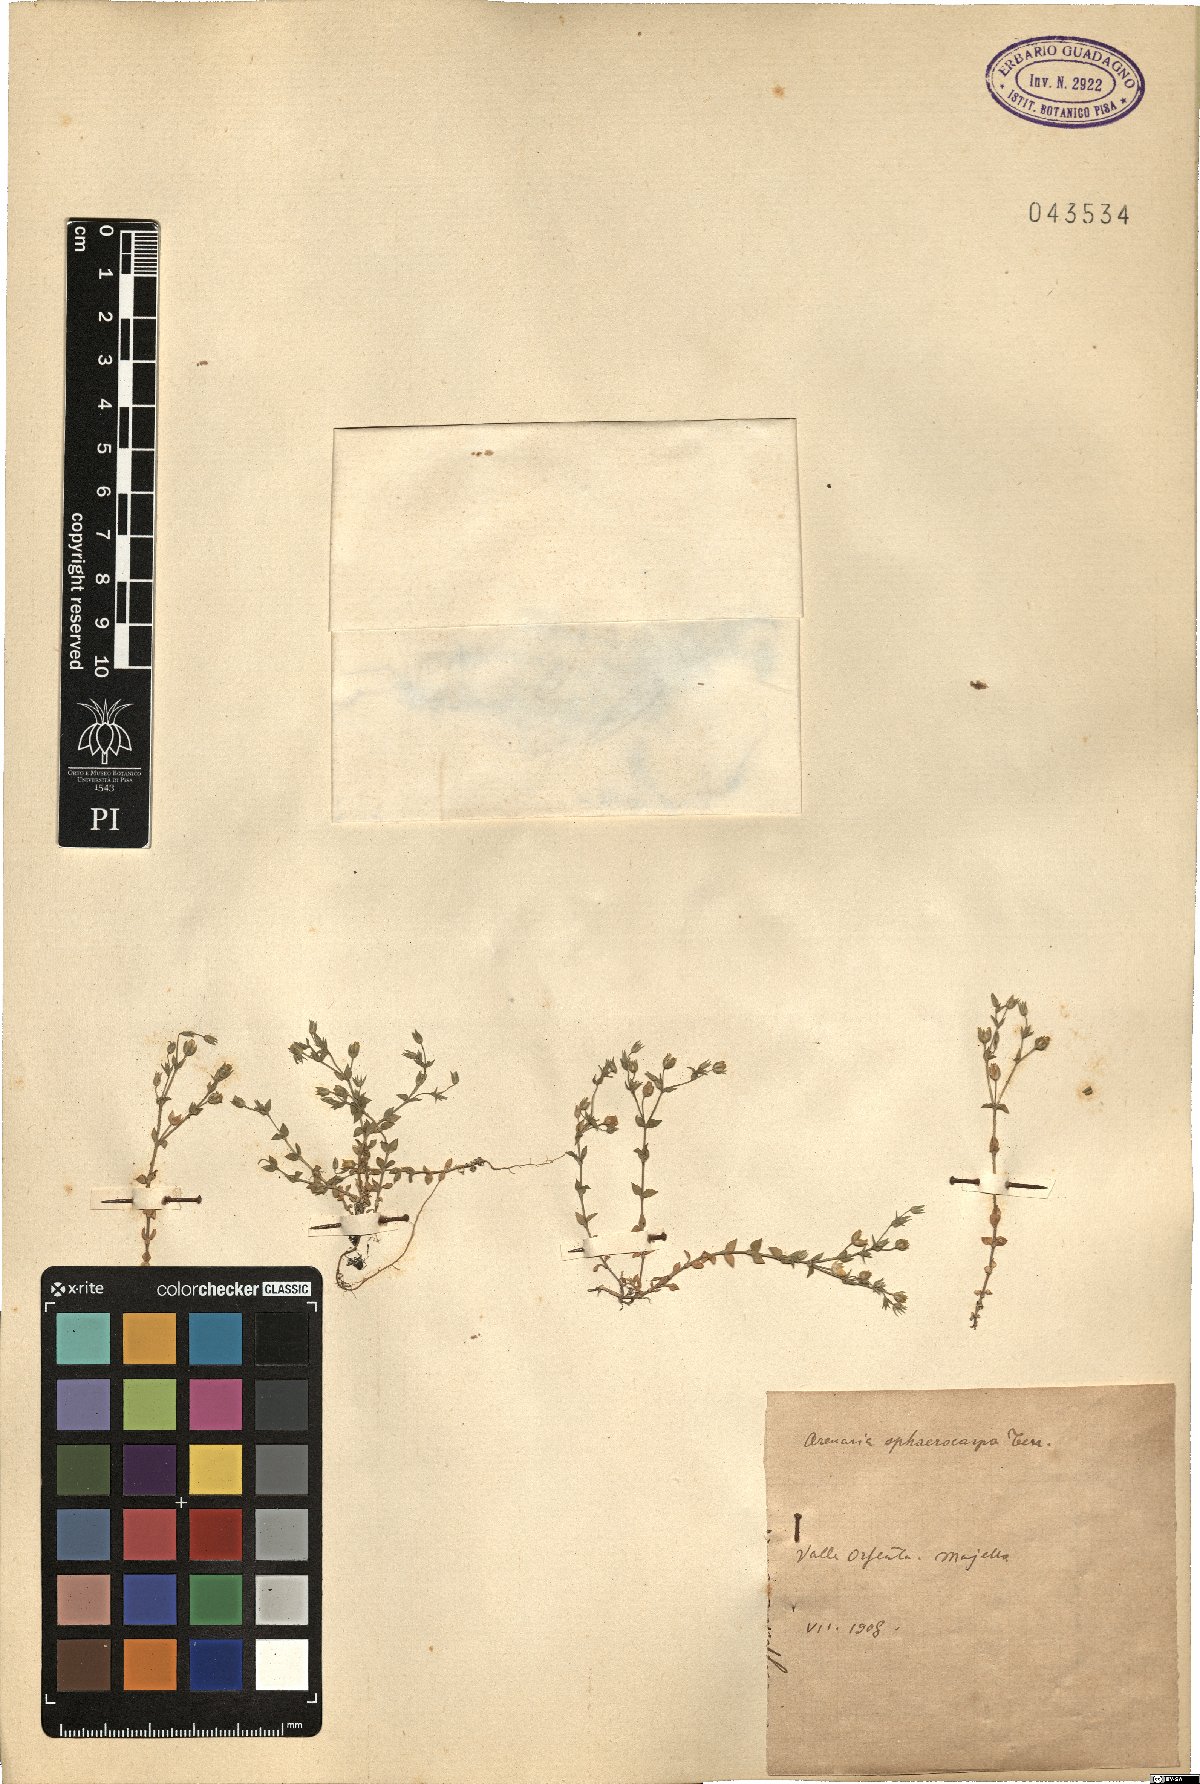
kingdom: Plantae
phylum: Tracheophyta
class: Magnoliopsida
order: Caryophyllales
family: Caryophyllaceae
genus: Arenaria
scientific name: Arenaria serpyllifolia
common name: Thyme-leaved sandwort
